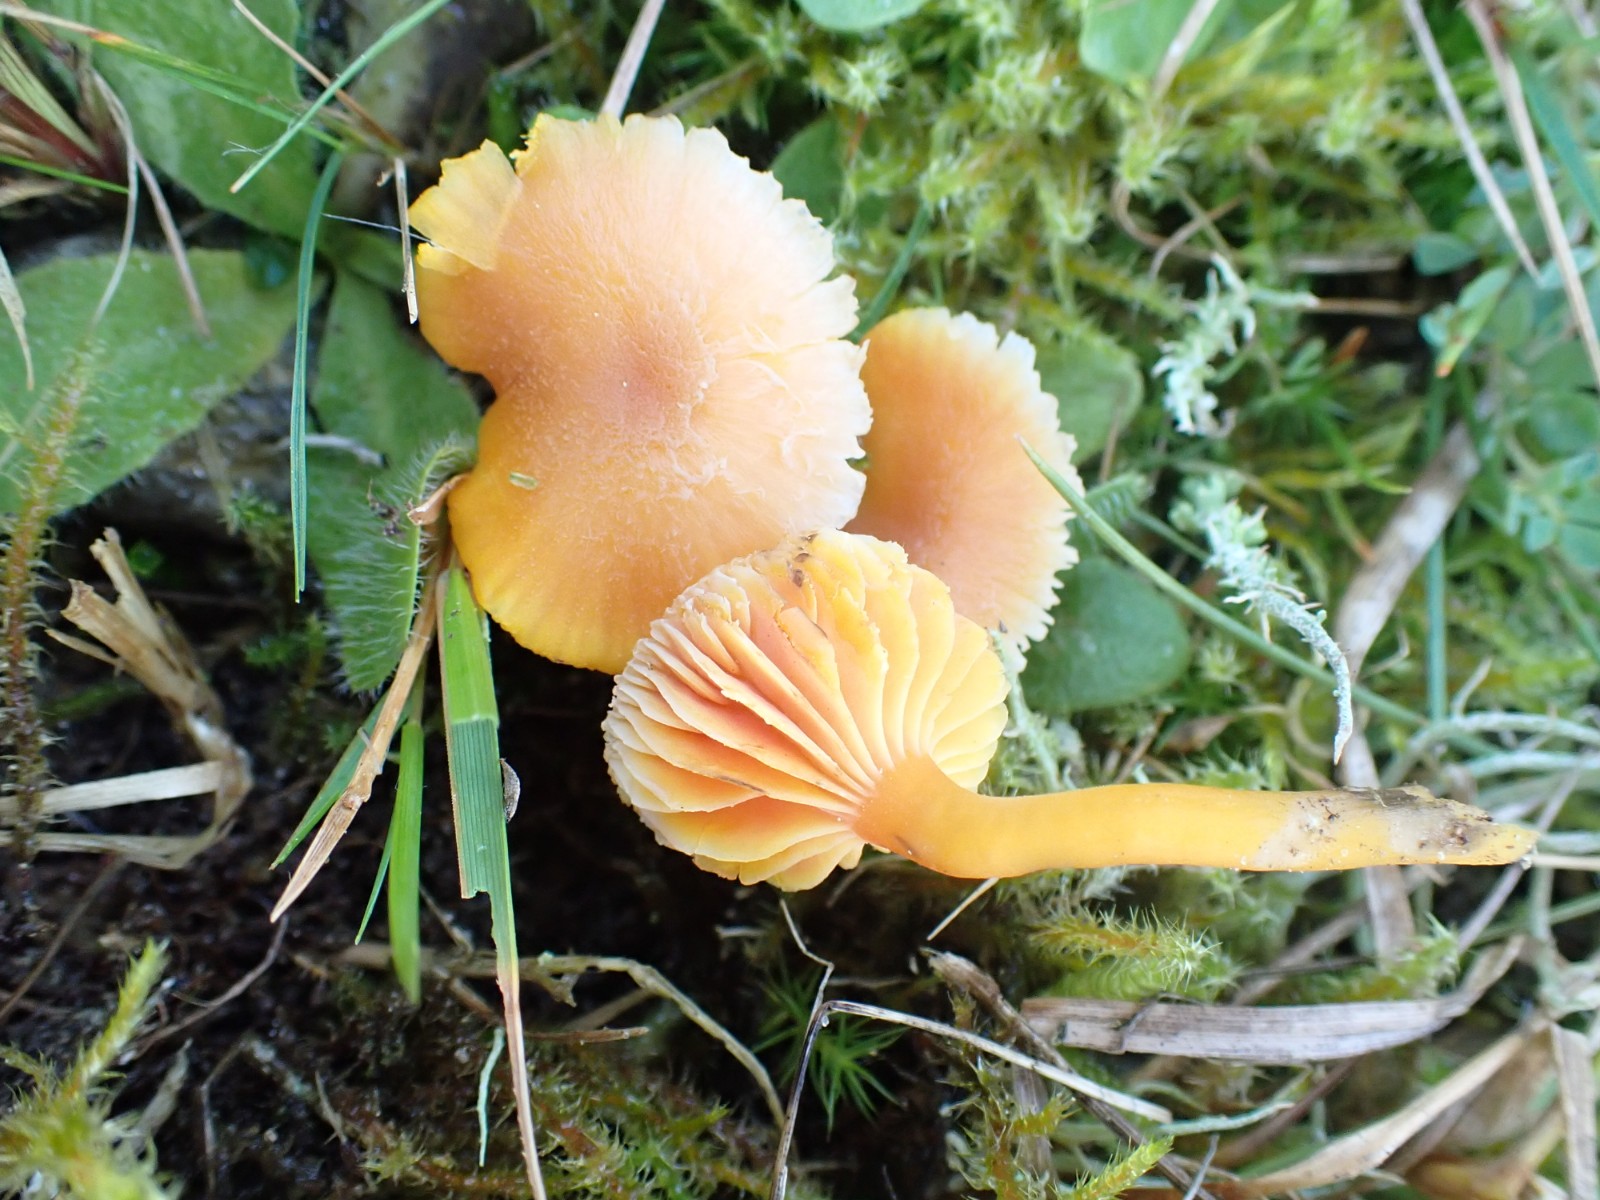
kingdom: Fungi
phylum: Basidiomycota
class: Agaricomycetes
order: Agaricales
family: Hygrophoraceae
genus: Hygrocybe
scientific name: Hygrocybe miniata
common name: mønje-vokshat
